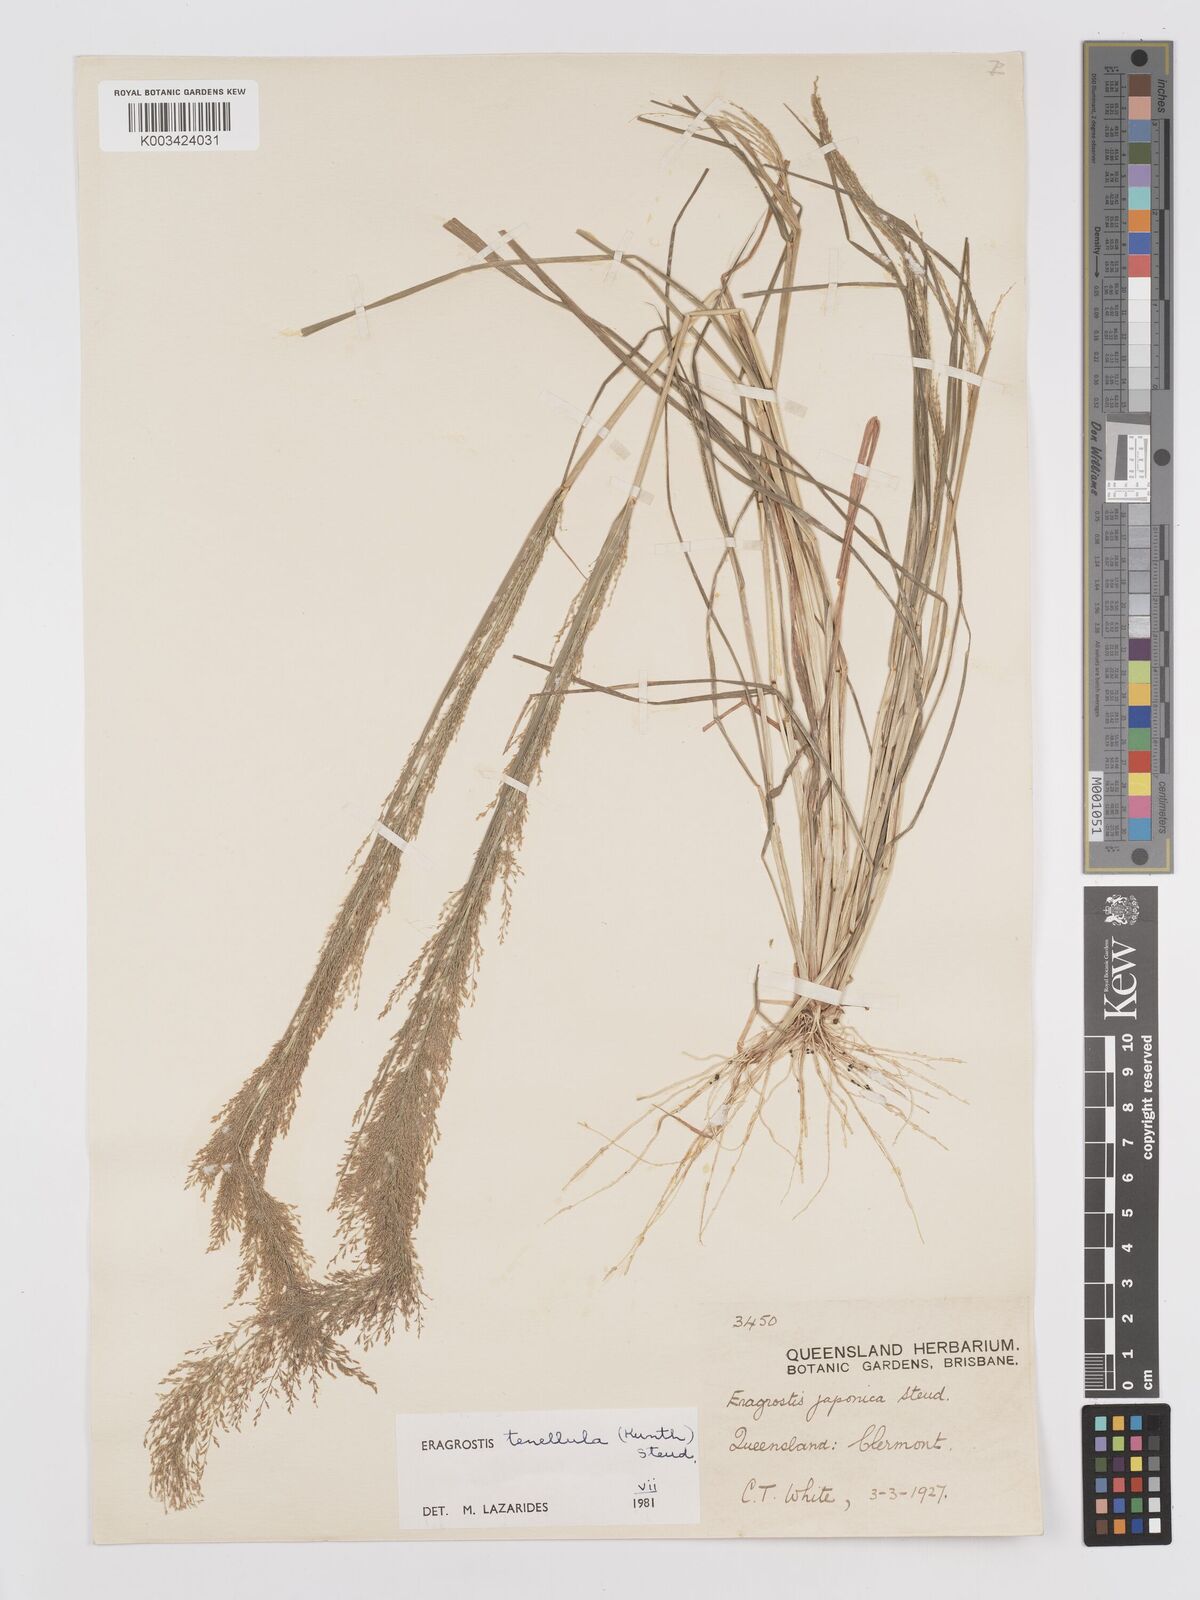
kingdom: Plantae
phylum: Tracheophyta
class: Liliopsida
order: Poales
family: Poaceae
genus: Eragrostis
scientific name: Eragrostis tenellula
